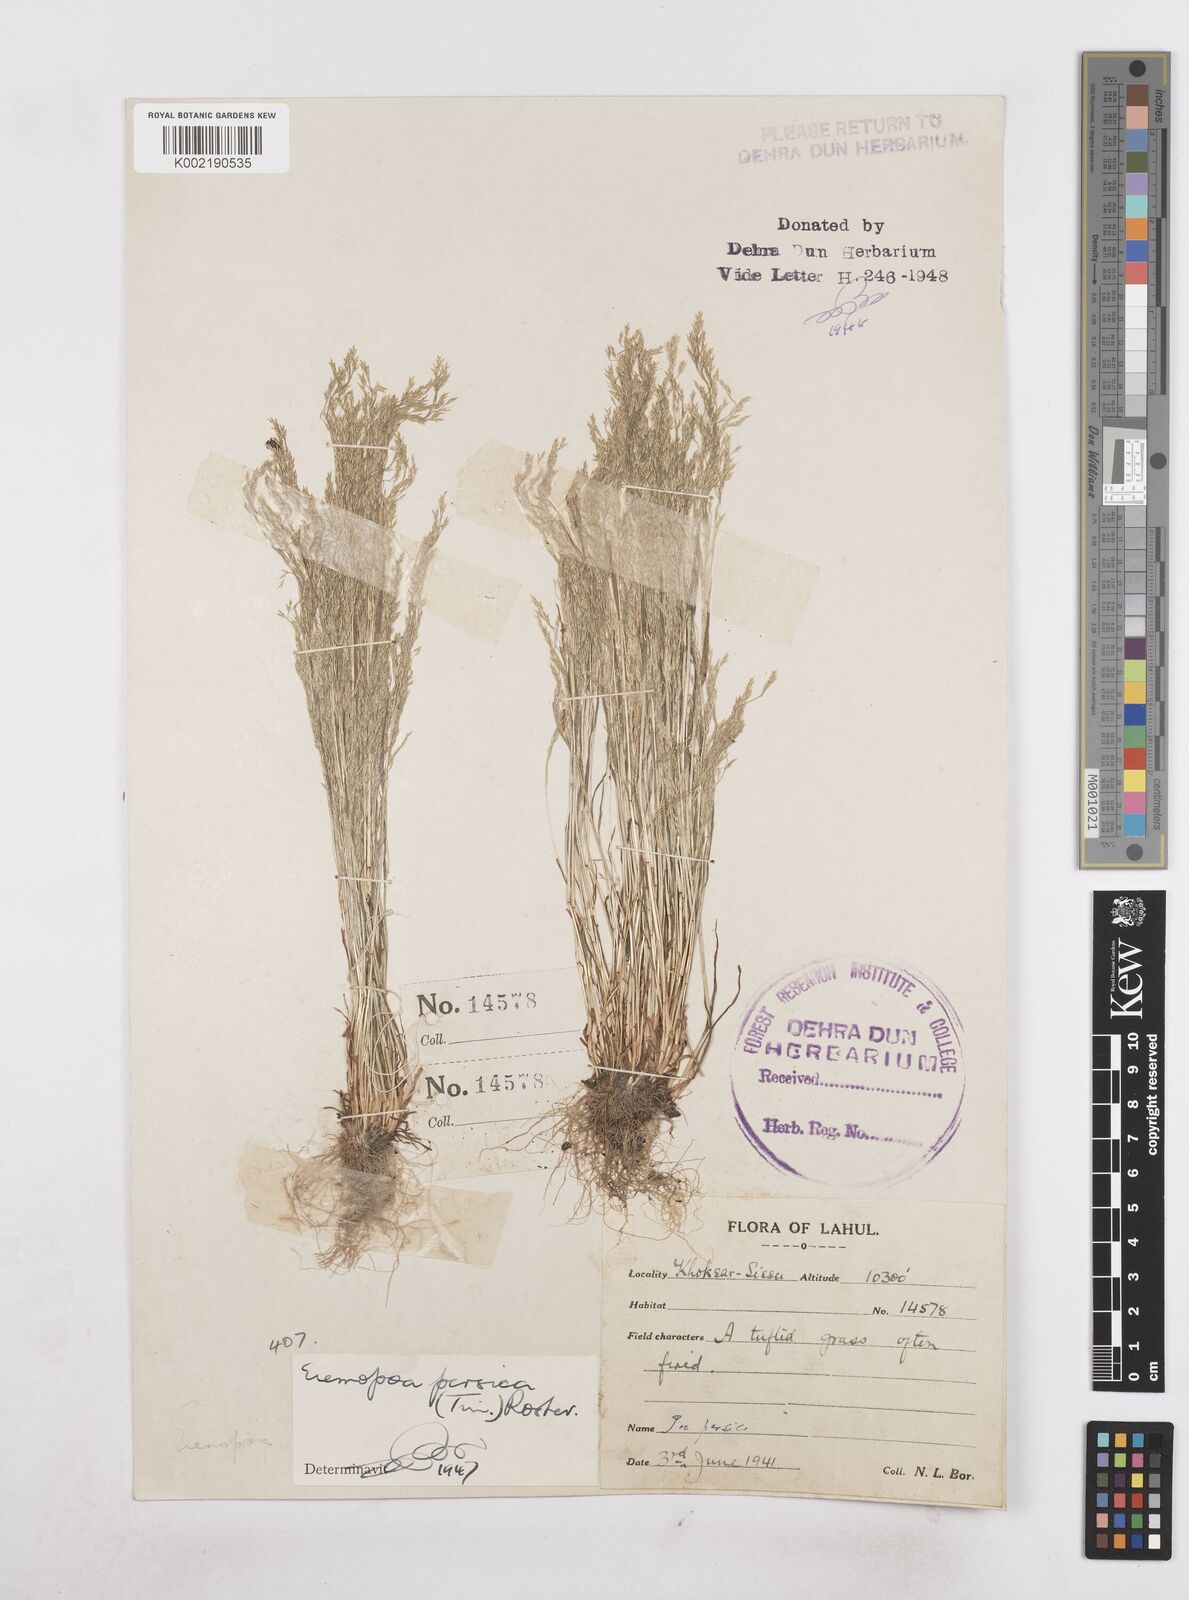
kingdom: Plantae
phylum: Tracheophyta
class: Liliopsida
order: Poales
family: Poaceae
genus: Poa
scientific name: Poa diaphora
